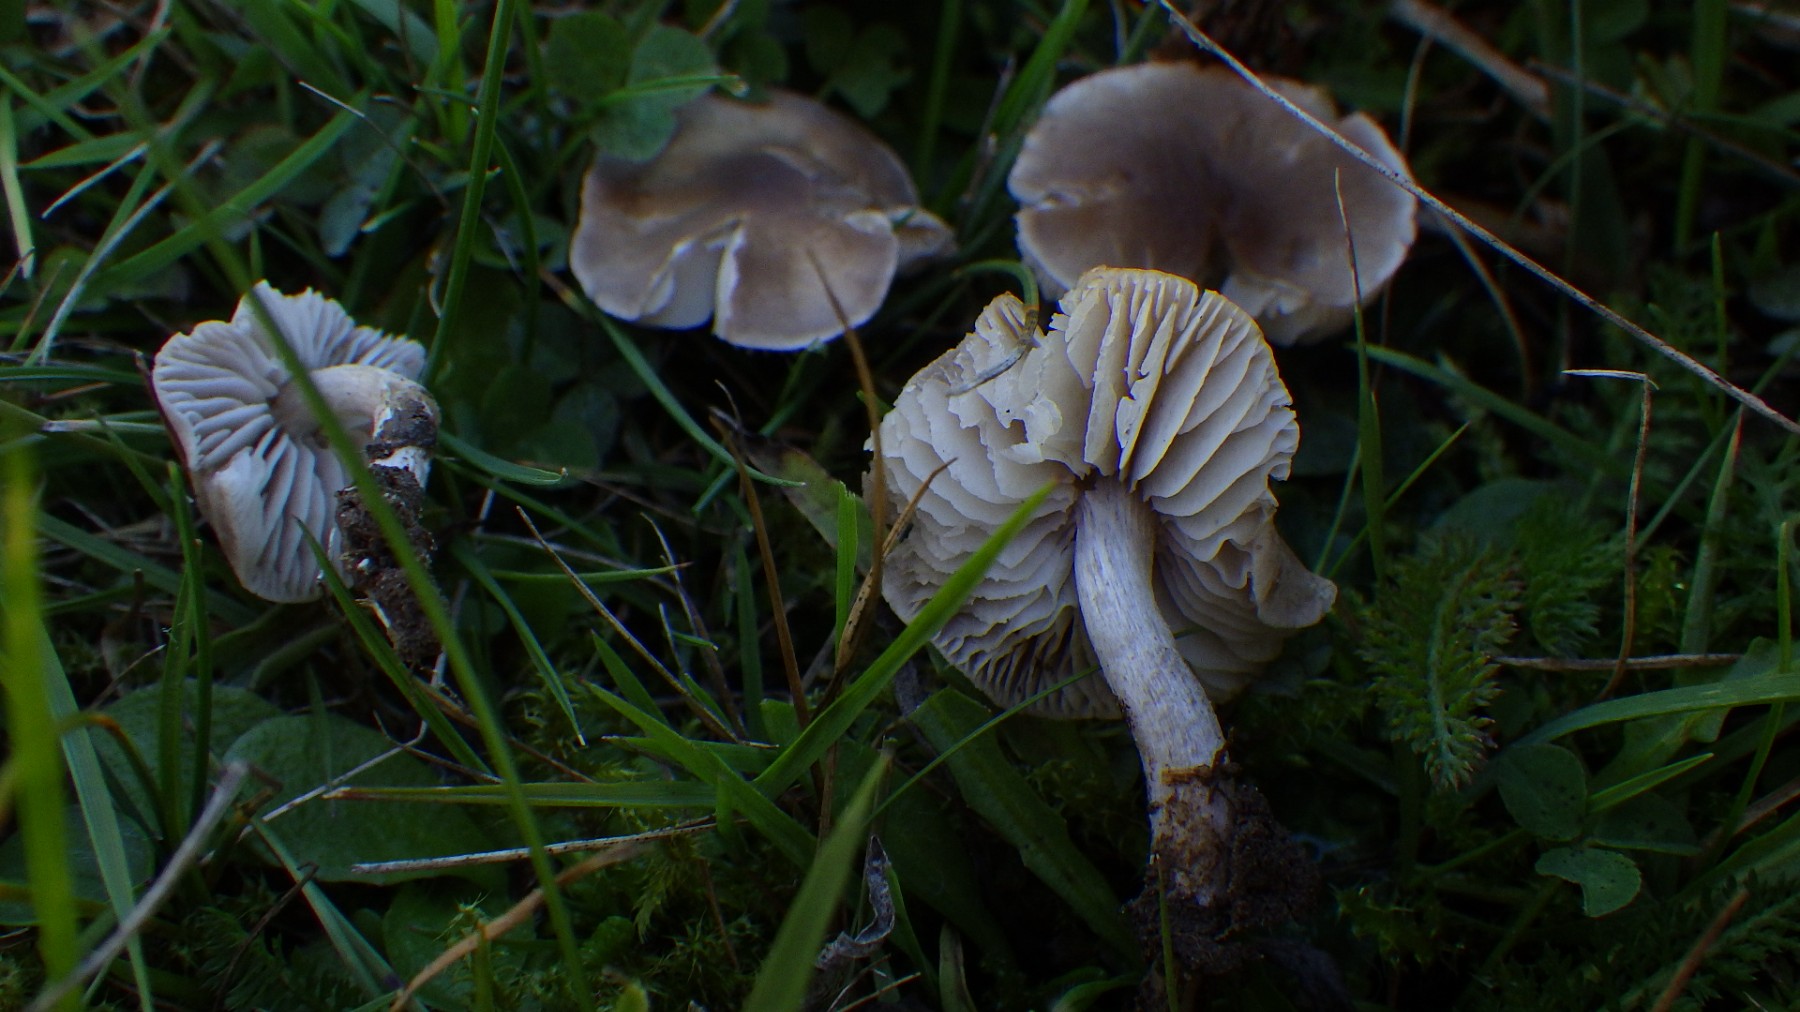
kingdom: Fungi
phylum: Basidiomycota
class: Agaricomycetes
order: Agaricales
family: Tricholomataceae
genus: Dermoloma
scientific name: Dermoloma cuneifolium
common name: eng-nonnehat
